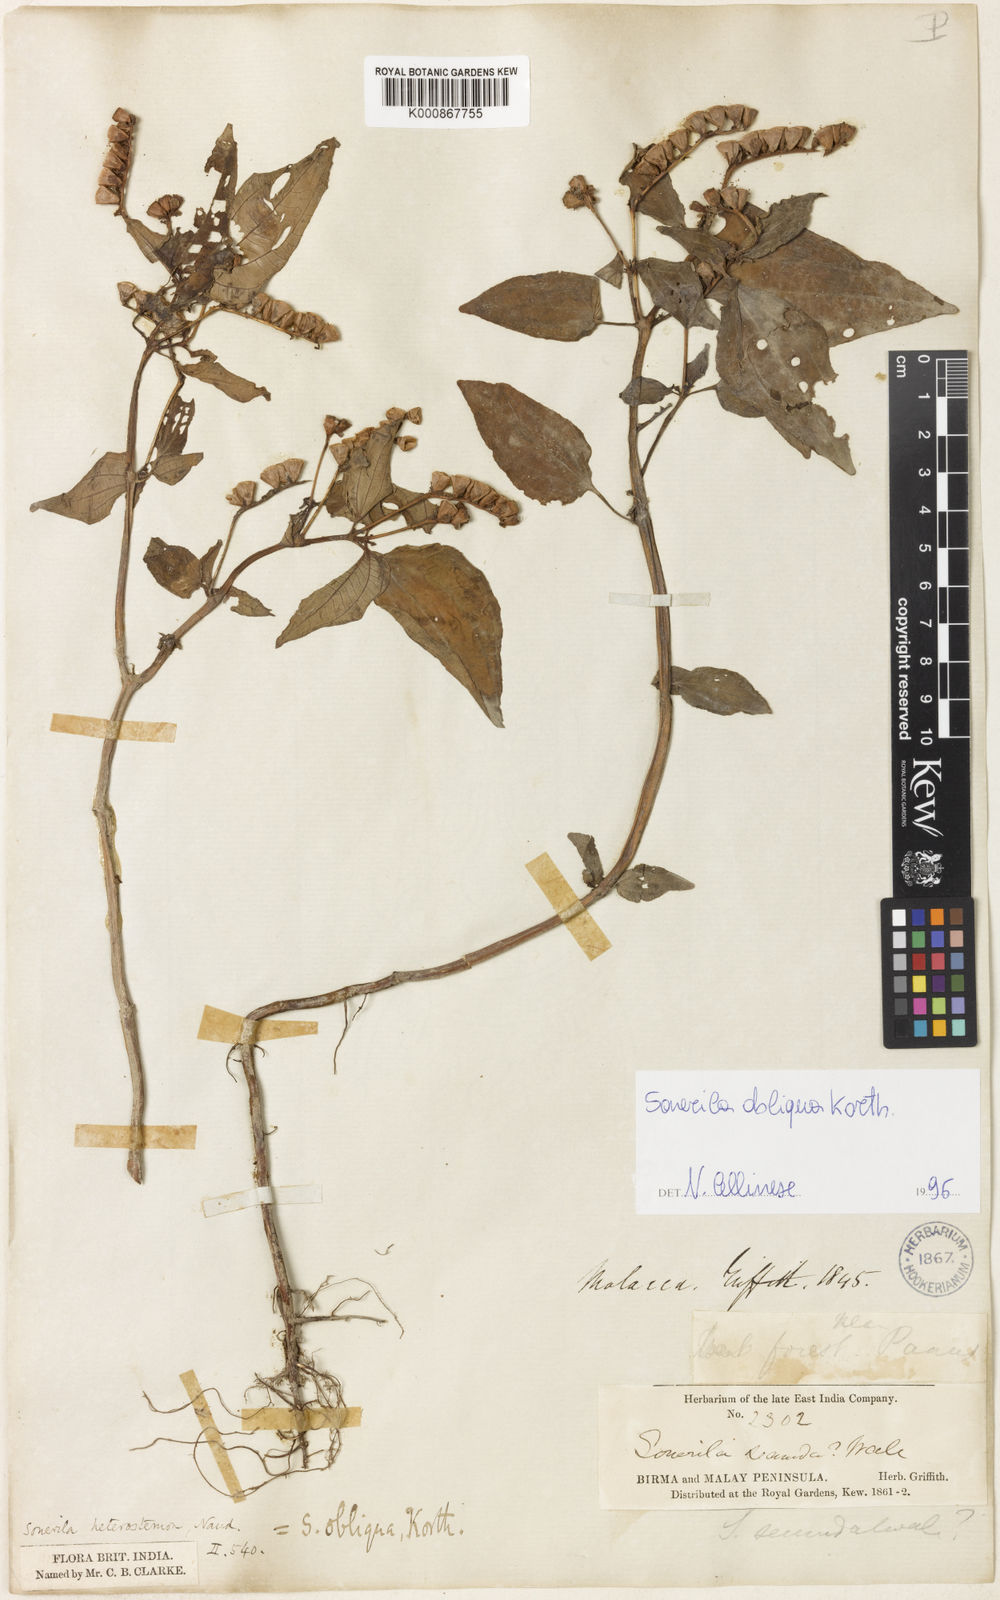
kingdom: Plantae
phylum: Tracheophyta
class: Magnoliopsida
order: Myrtales
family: Melastomataceae
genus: Sonerila
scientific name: Sonerila obliqua
